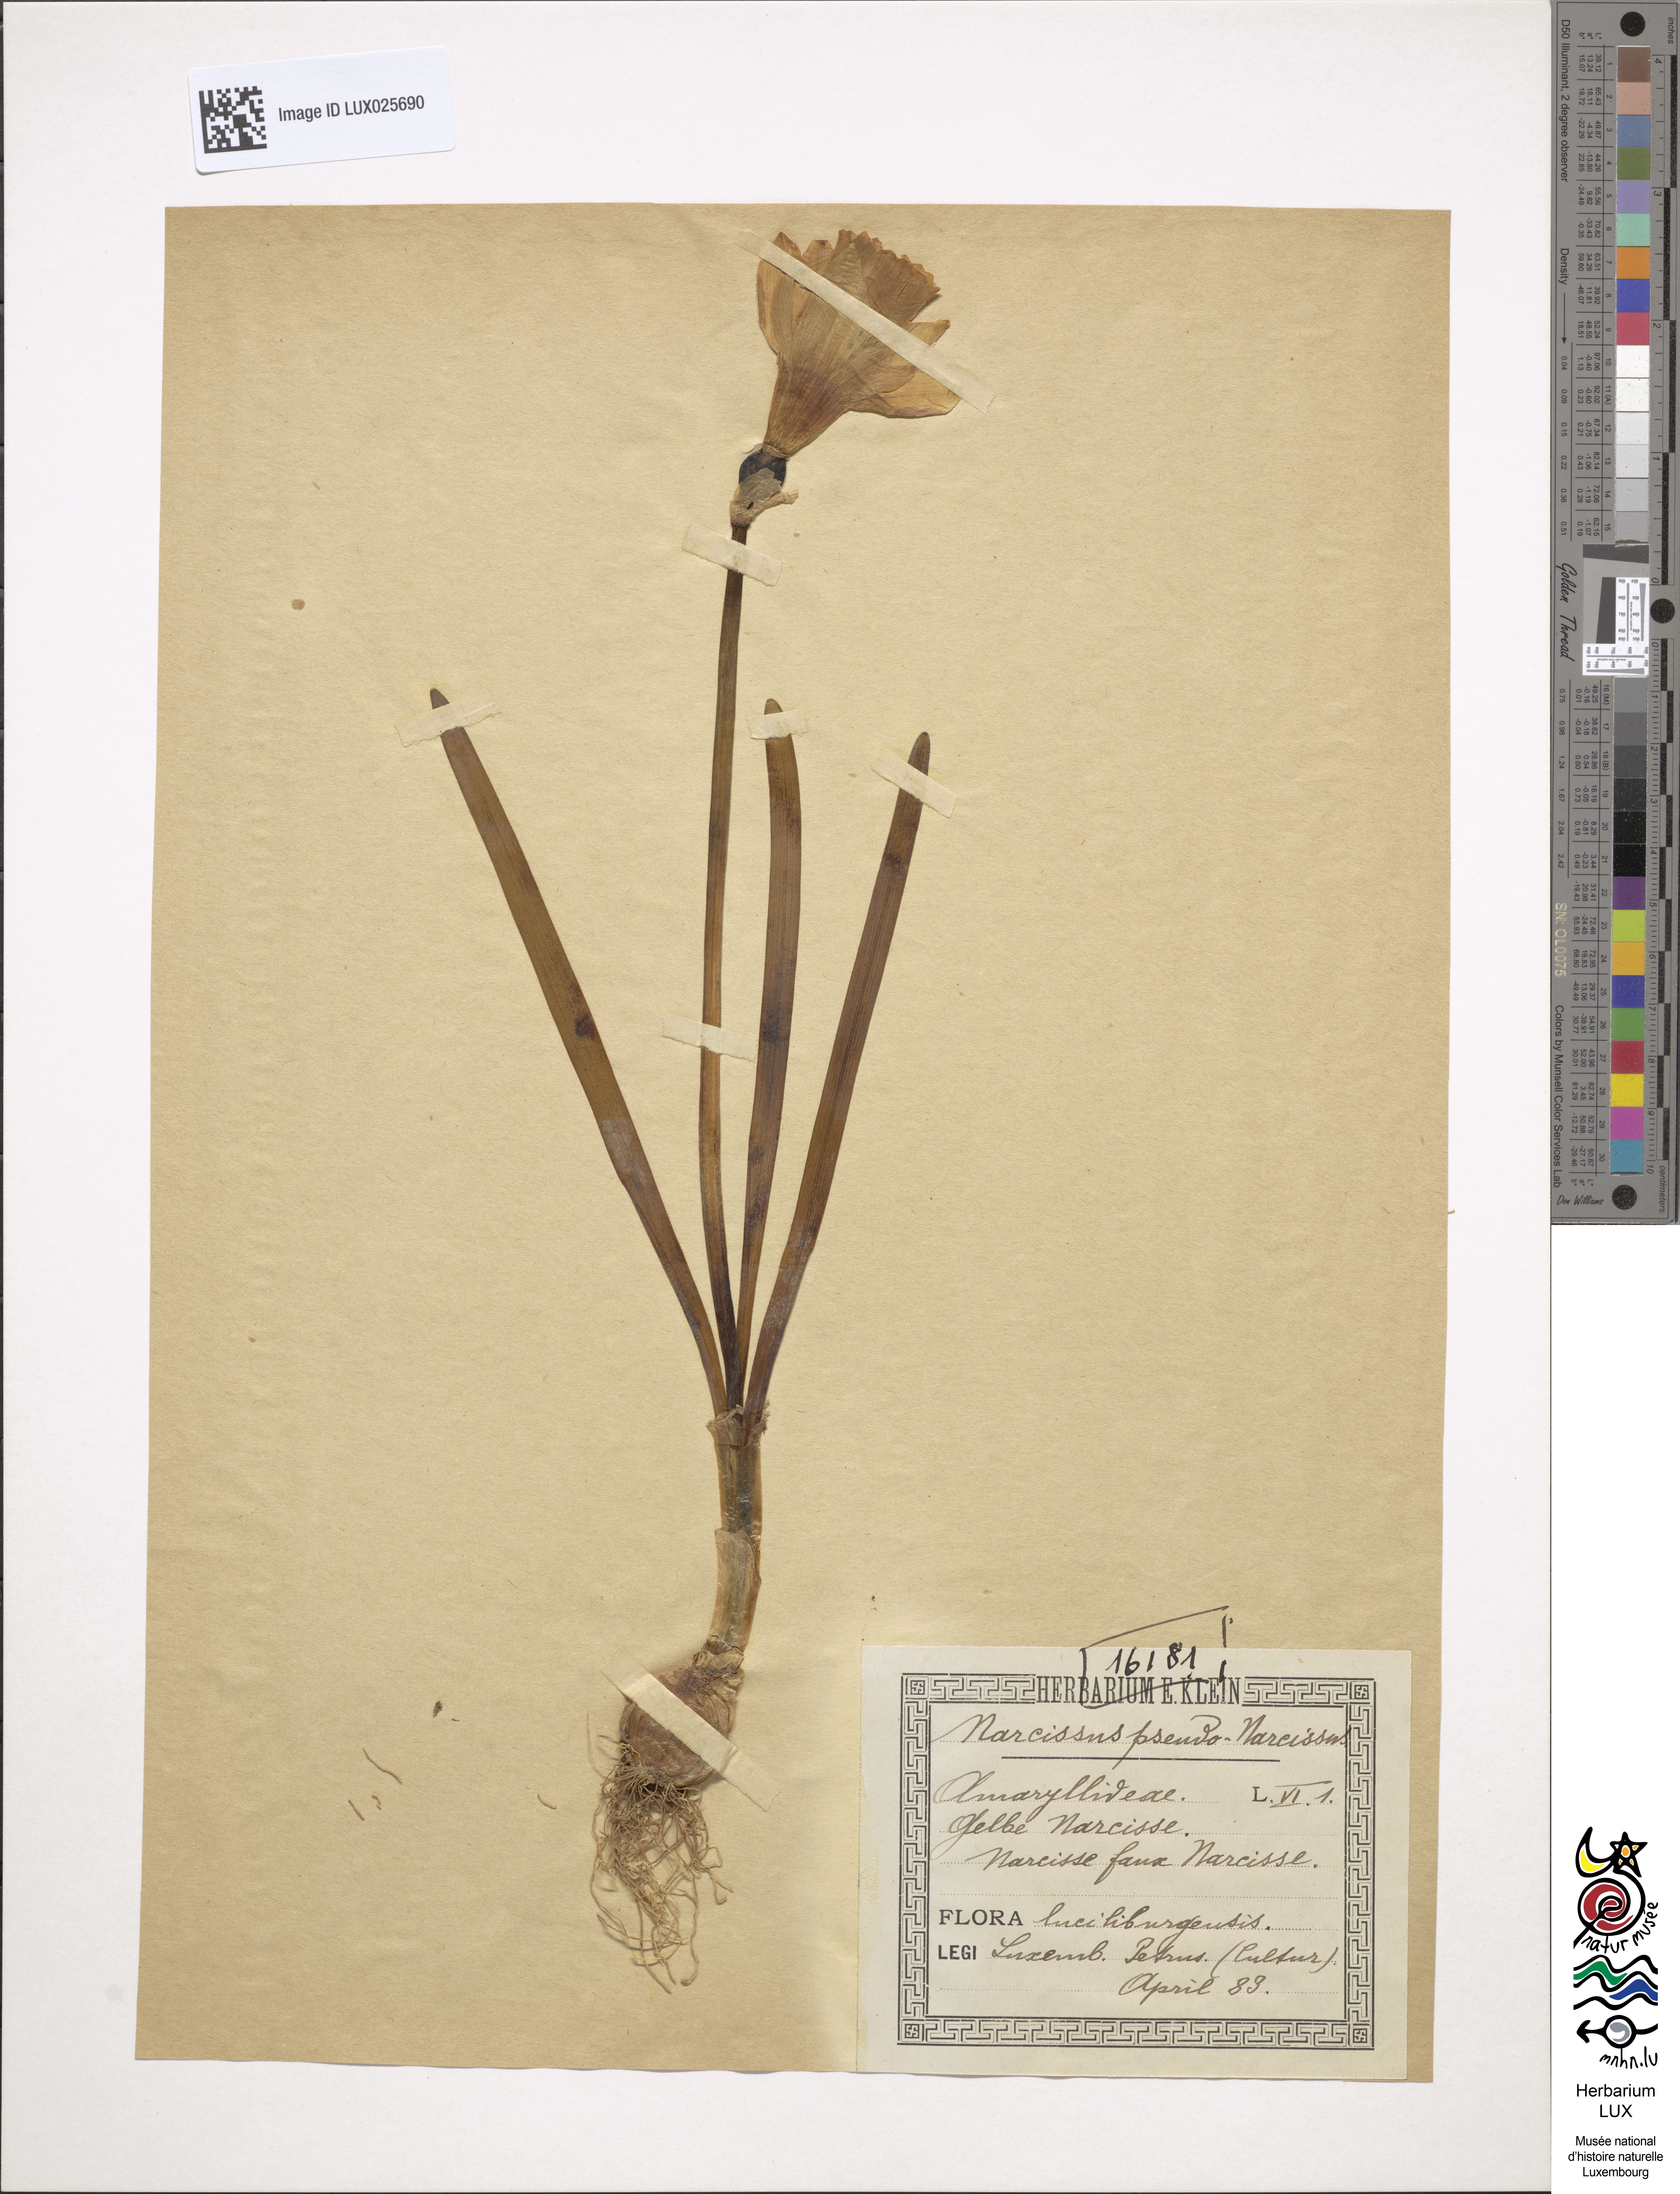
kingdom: Plantae
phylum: Tracheophyta
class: Liliopsida
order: Asparagales
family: Amaryllidaceae
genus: Narcissus
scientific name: Narcissus pseudonarcissus
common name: Daffodil
